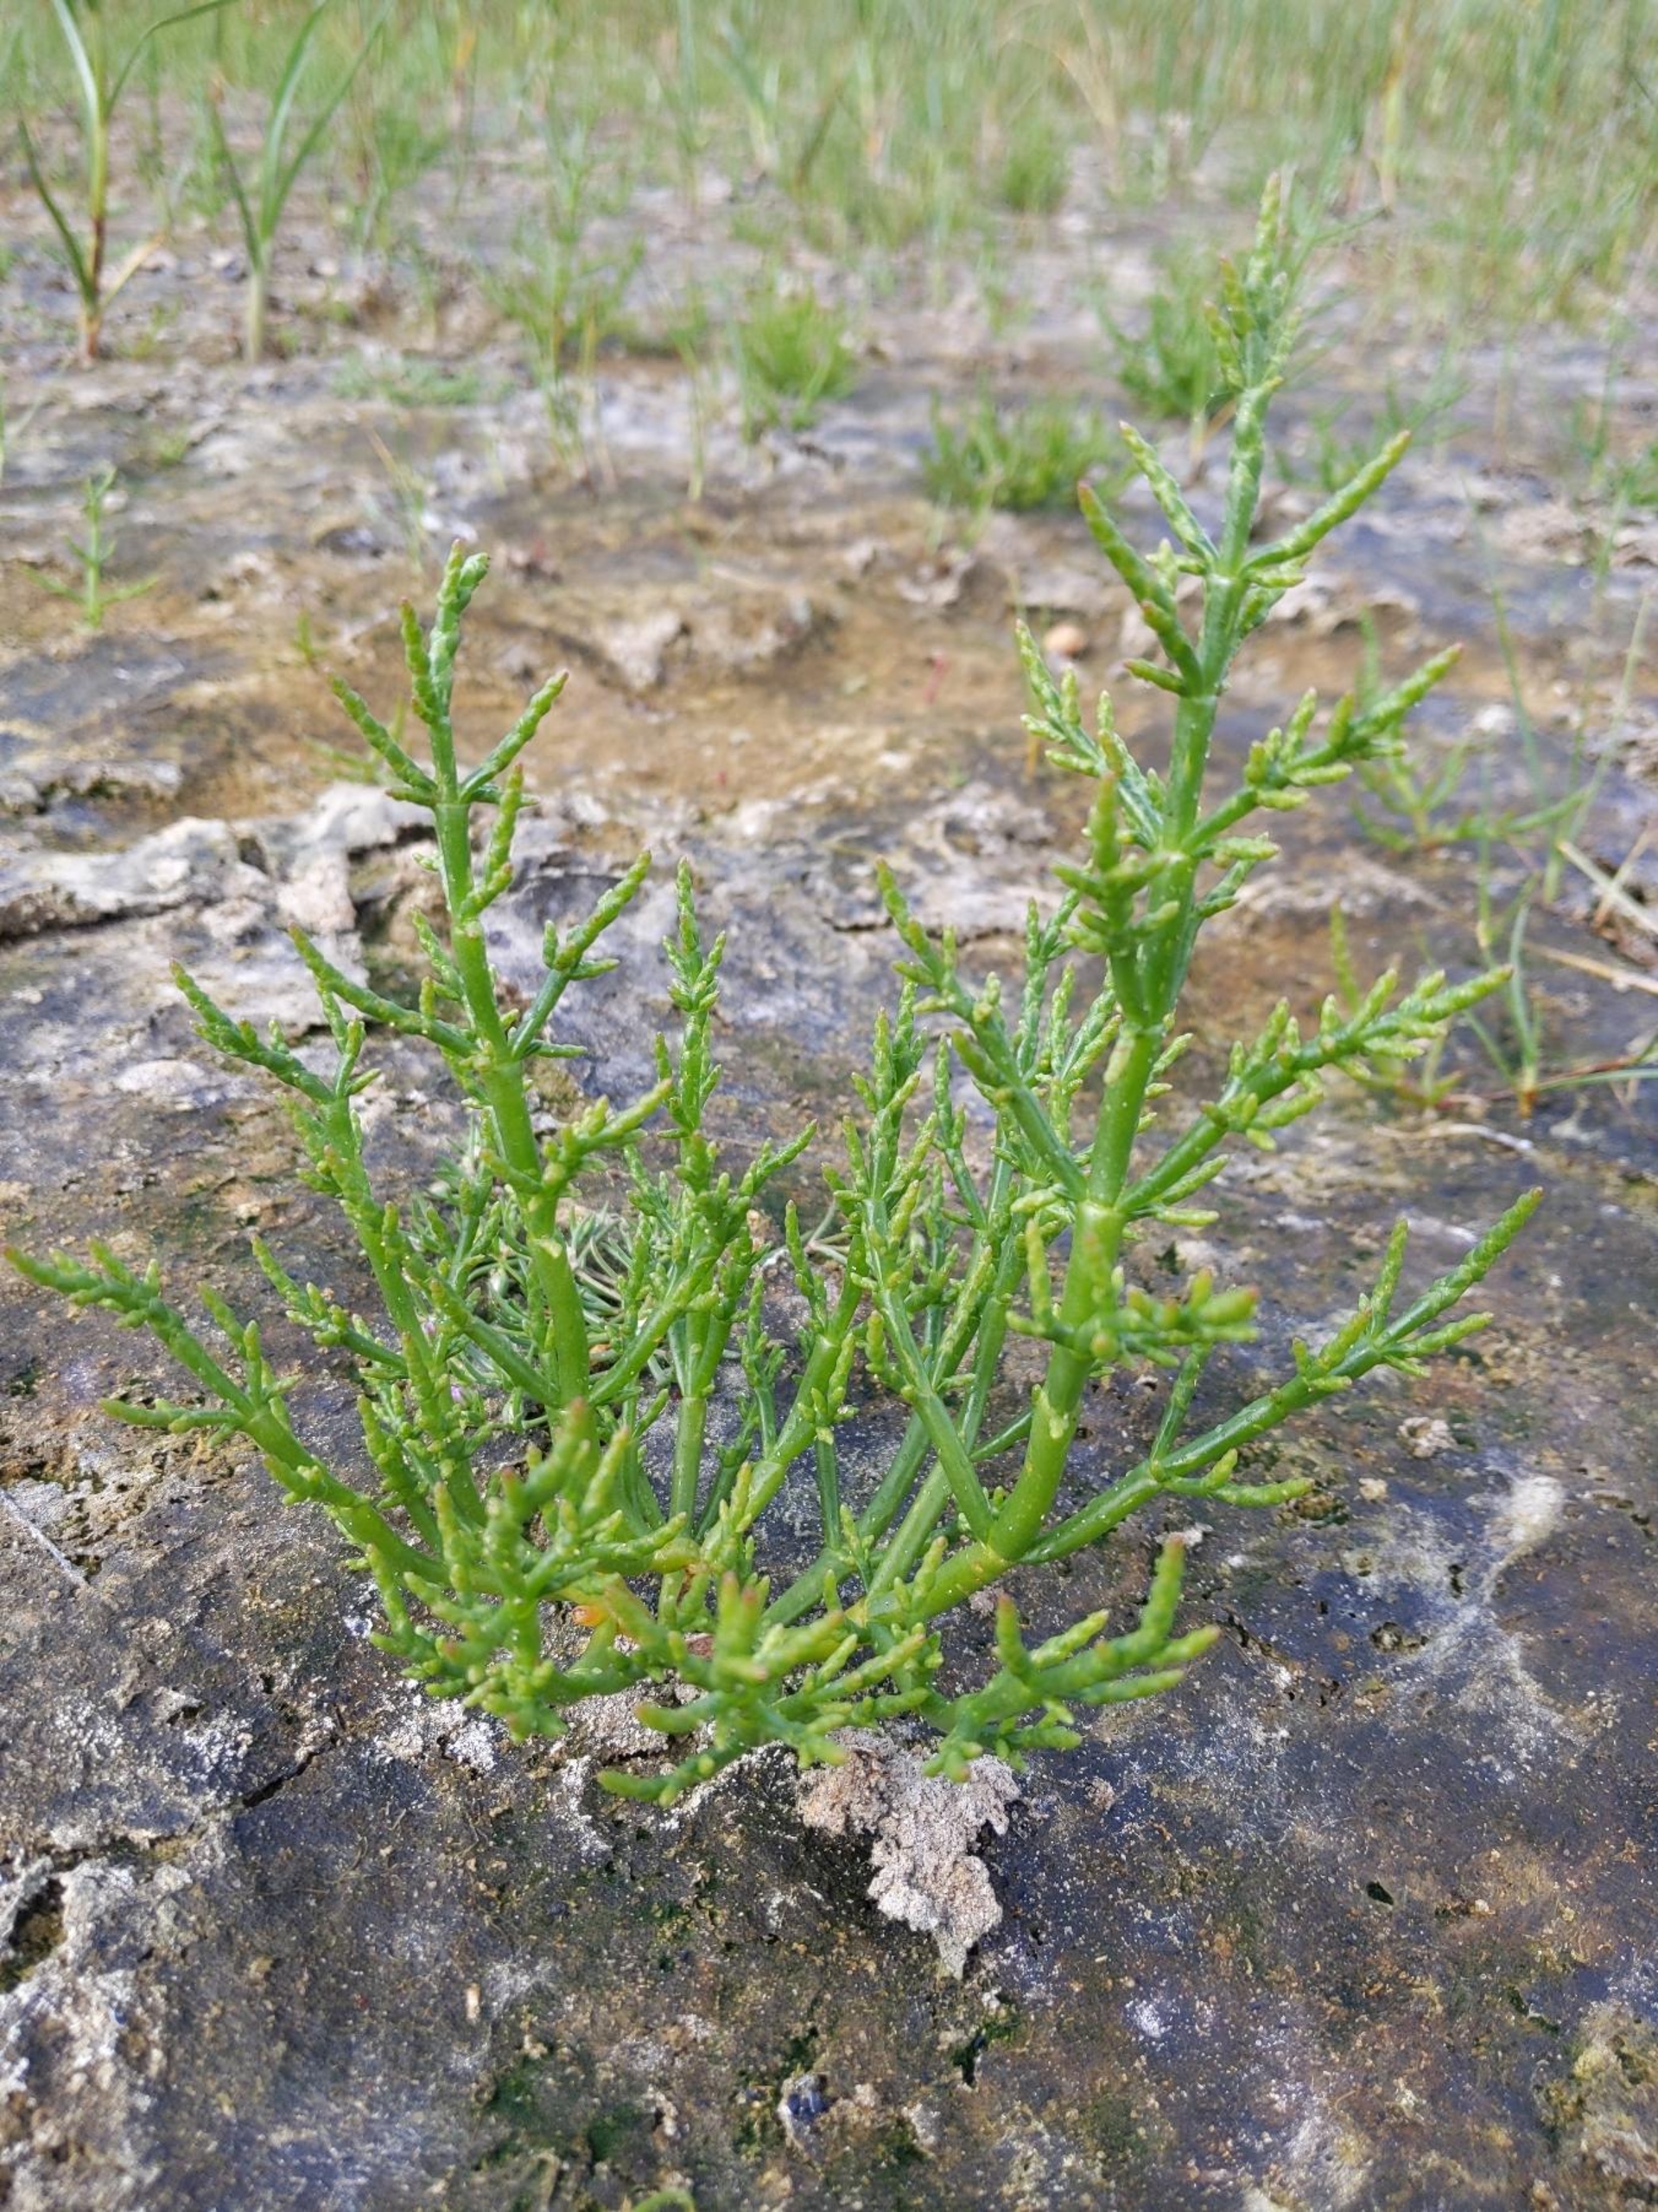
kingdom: Plantae
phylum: Tracheophyta
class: Magnoliopsida
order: Caryophyllales
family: Amaranthaceae
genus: Salicornia
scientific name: Salicornia europaea
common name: Almindelig salturt
